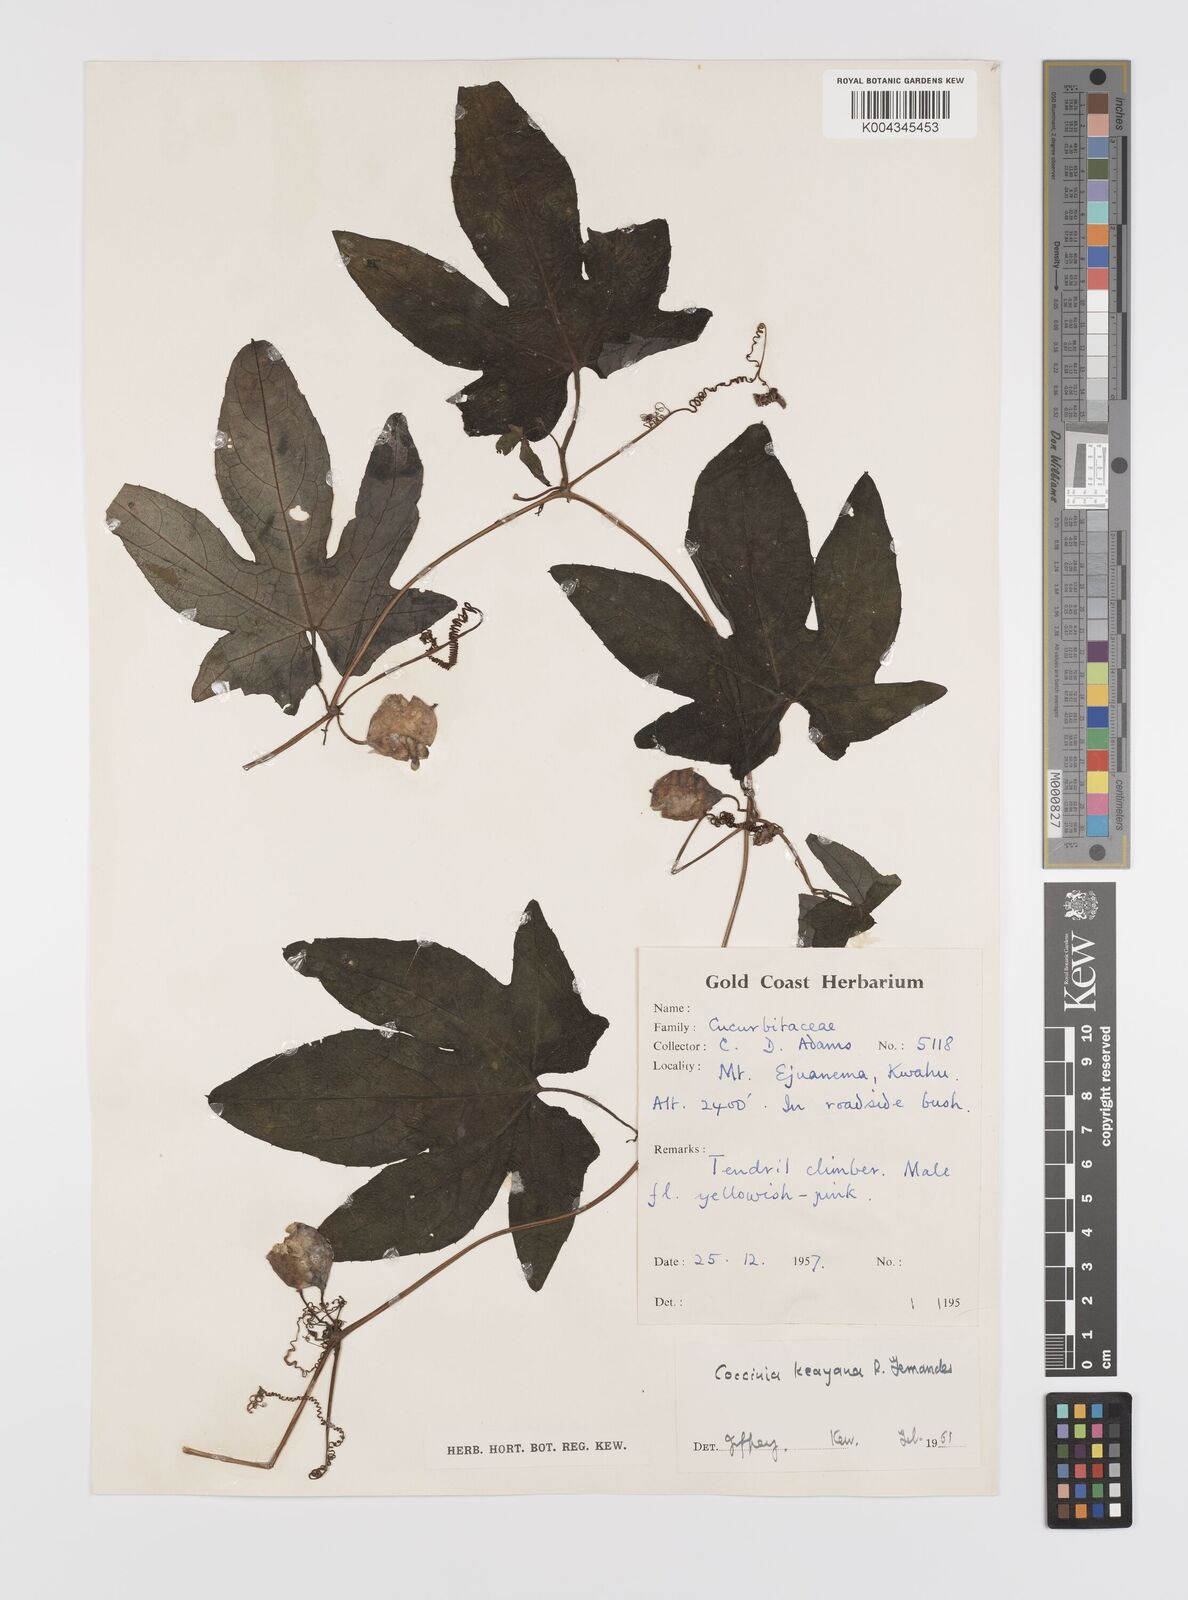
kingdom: Plantae
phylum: Tracheophyta
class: Magnoliopsida
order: Cucurbitales
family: Cucurbitaceae
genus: Coccinia
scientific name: Coccinia keayana
